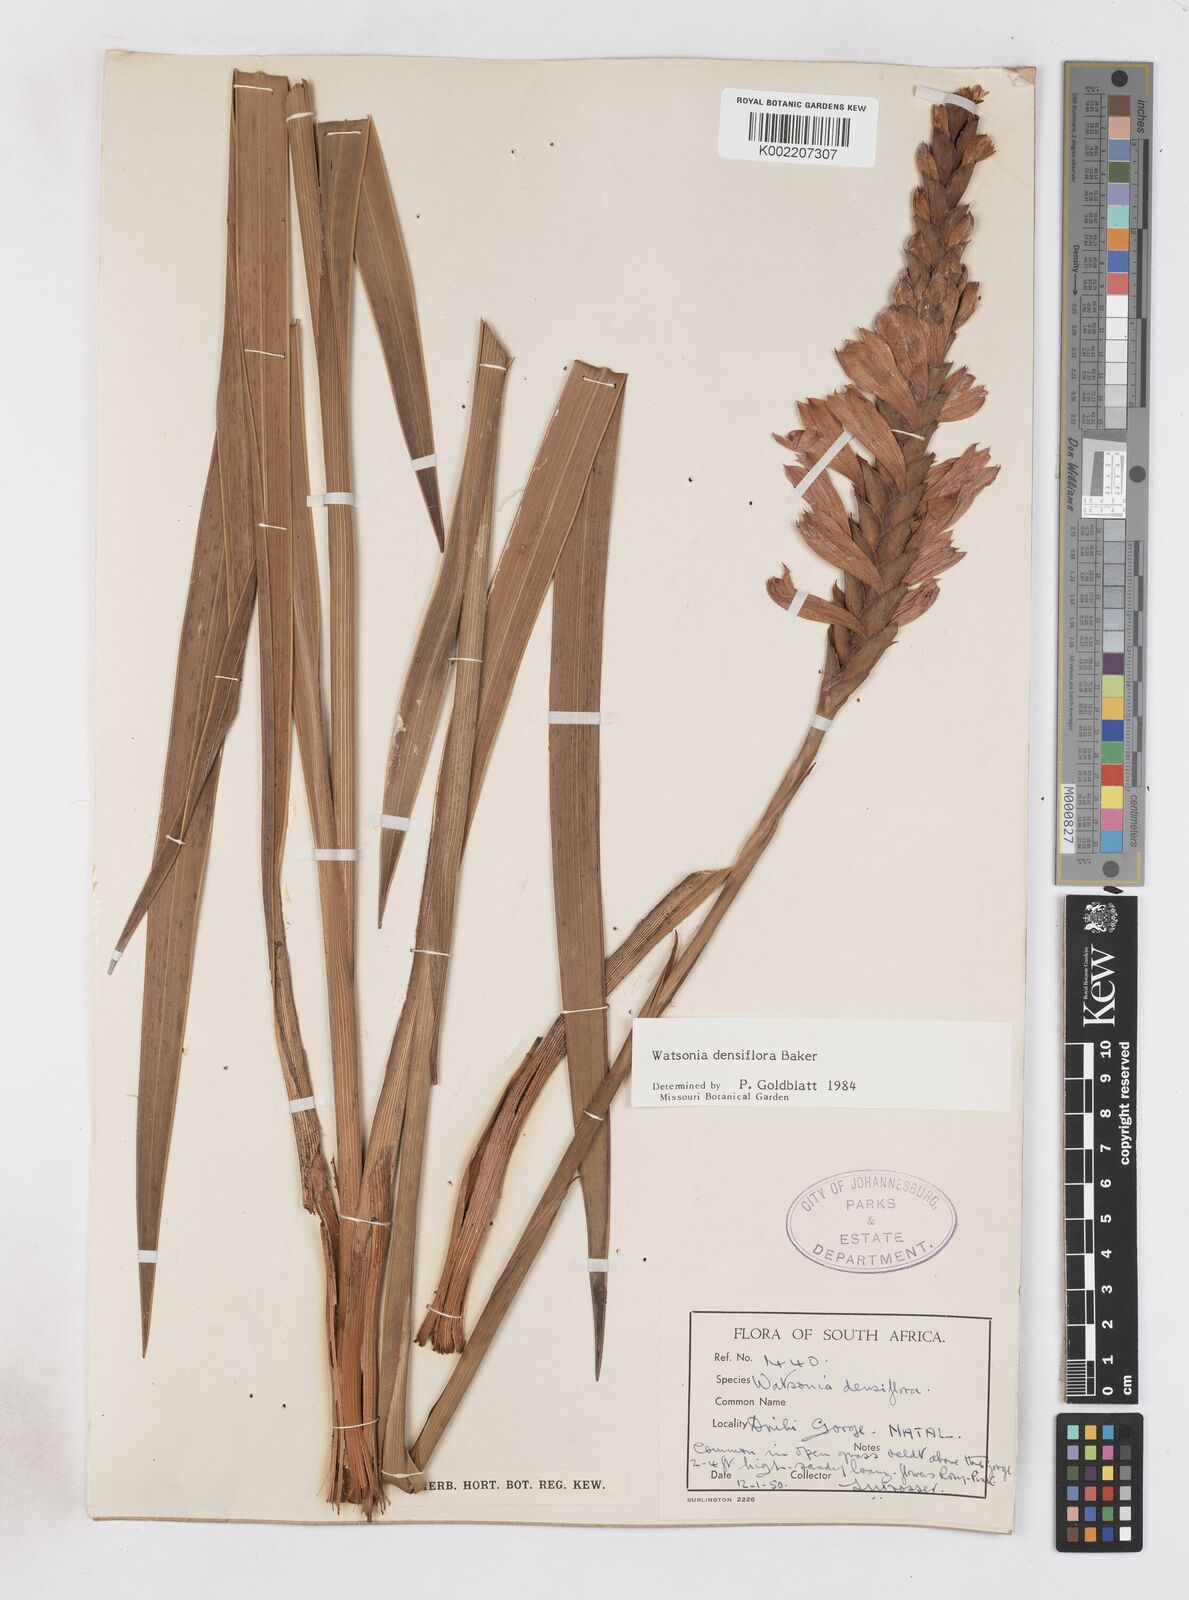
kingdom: Plantae
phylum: Tracheophyta
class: Liliopsida
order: Asparagales
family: Iridaceae
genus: Watsonia
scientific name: Watsonia densiflora
